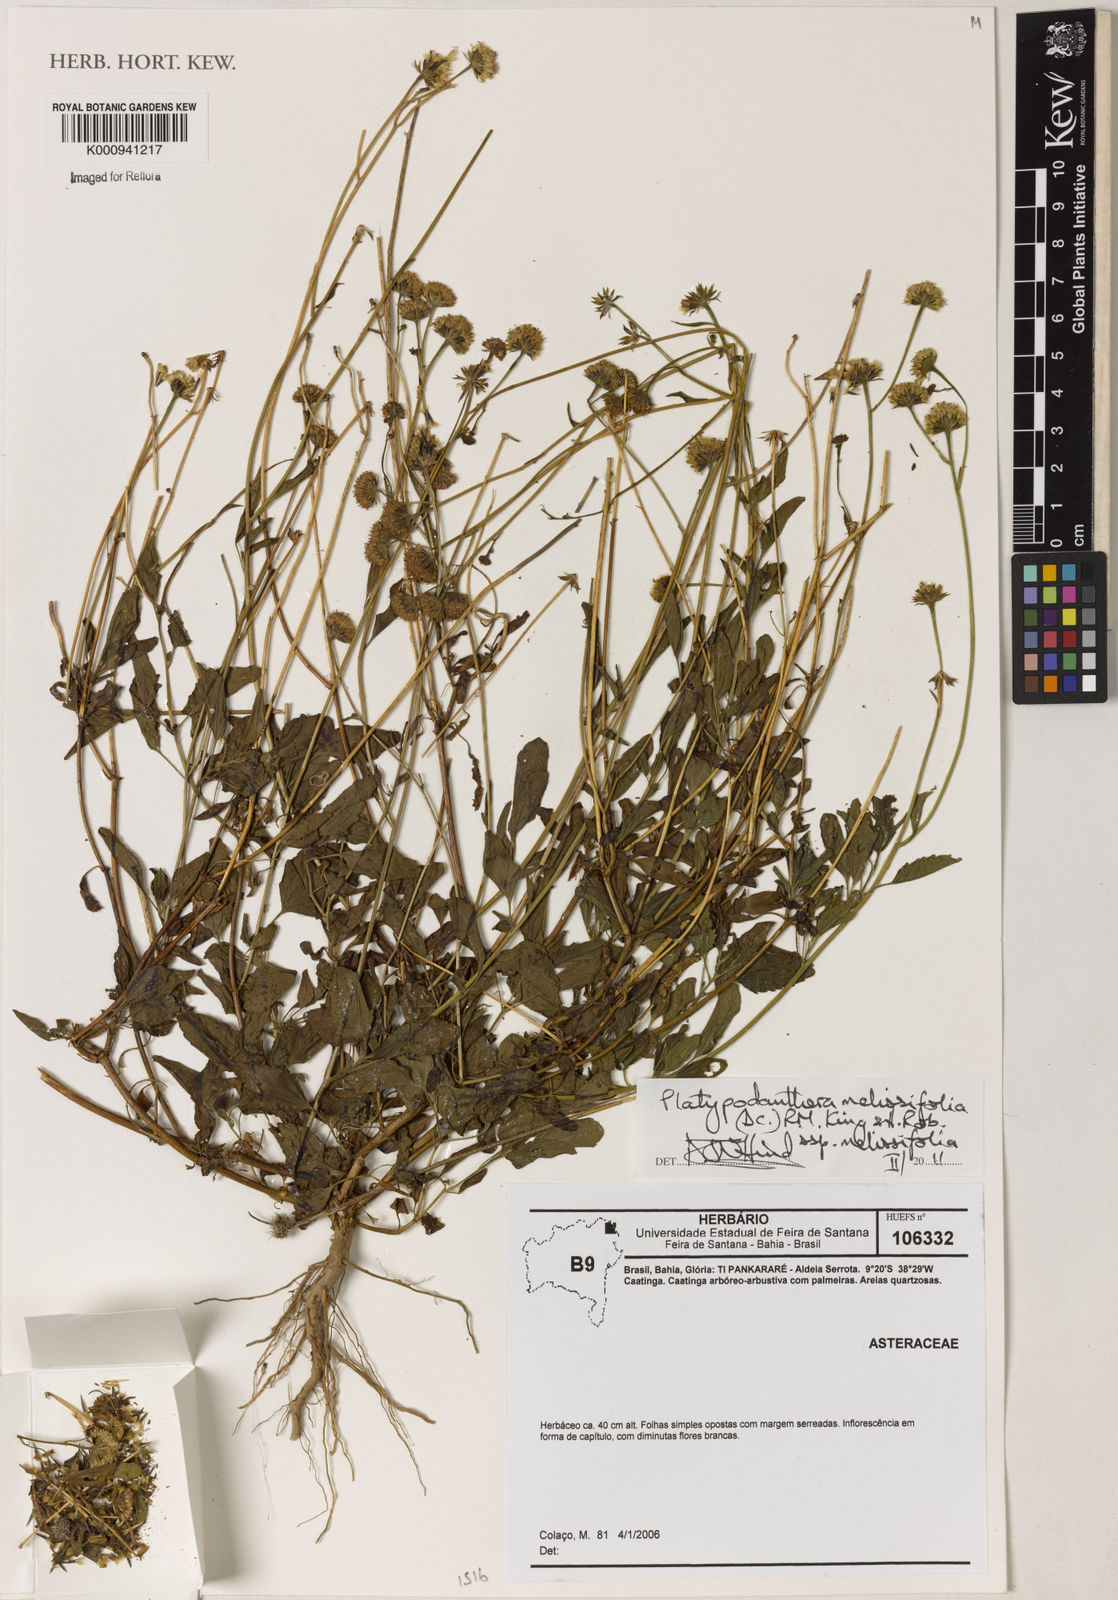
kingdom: Plantae
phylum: Tracheophyta
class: Magnoliopsida
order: Asterales
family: Asteraceae
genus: Platypodanthera
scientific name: Platypodanthera melissifolia
